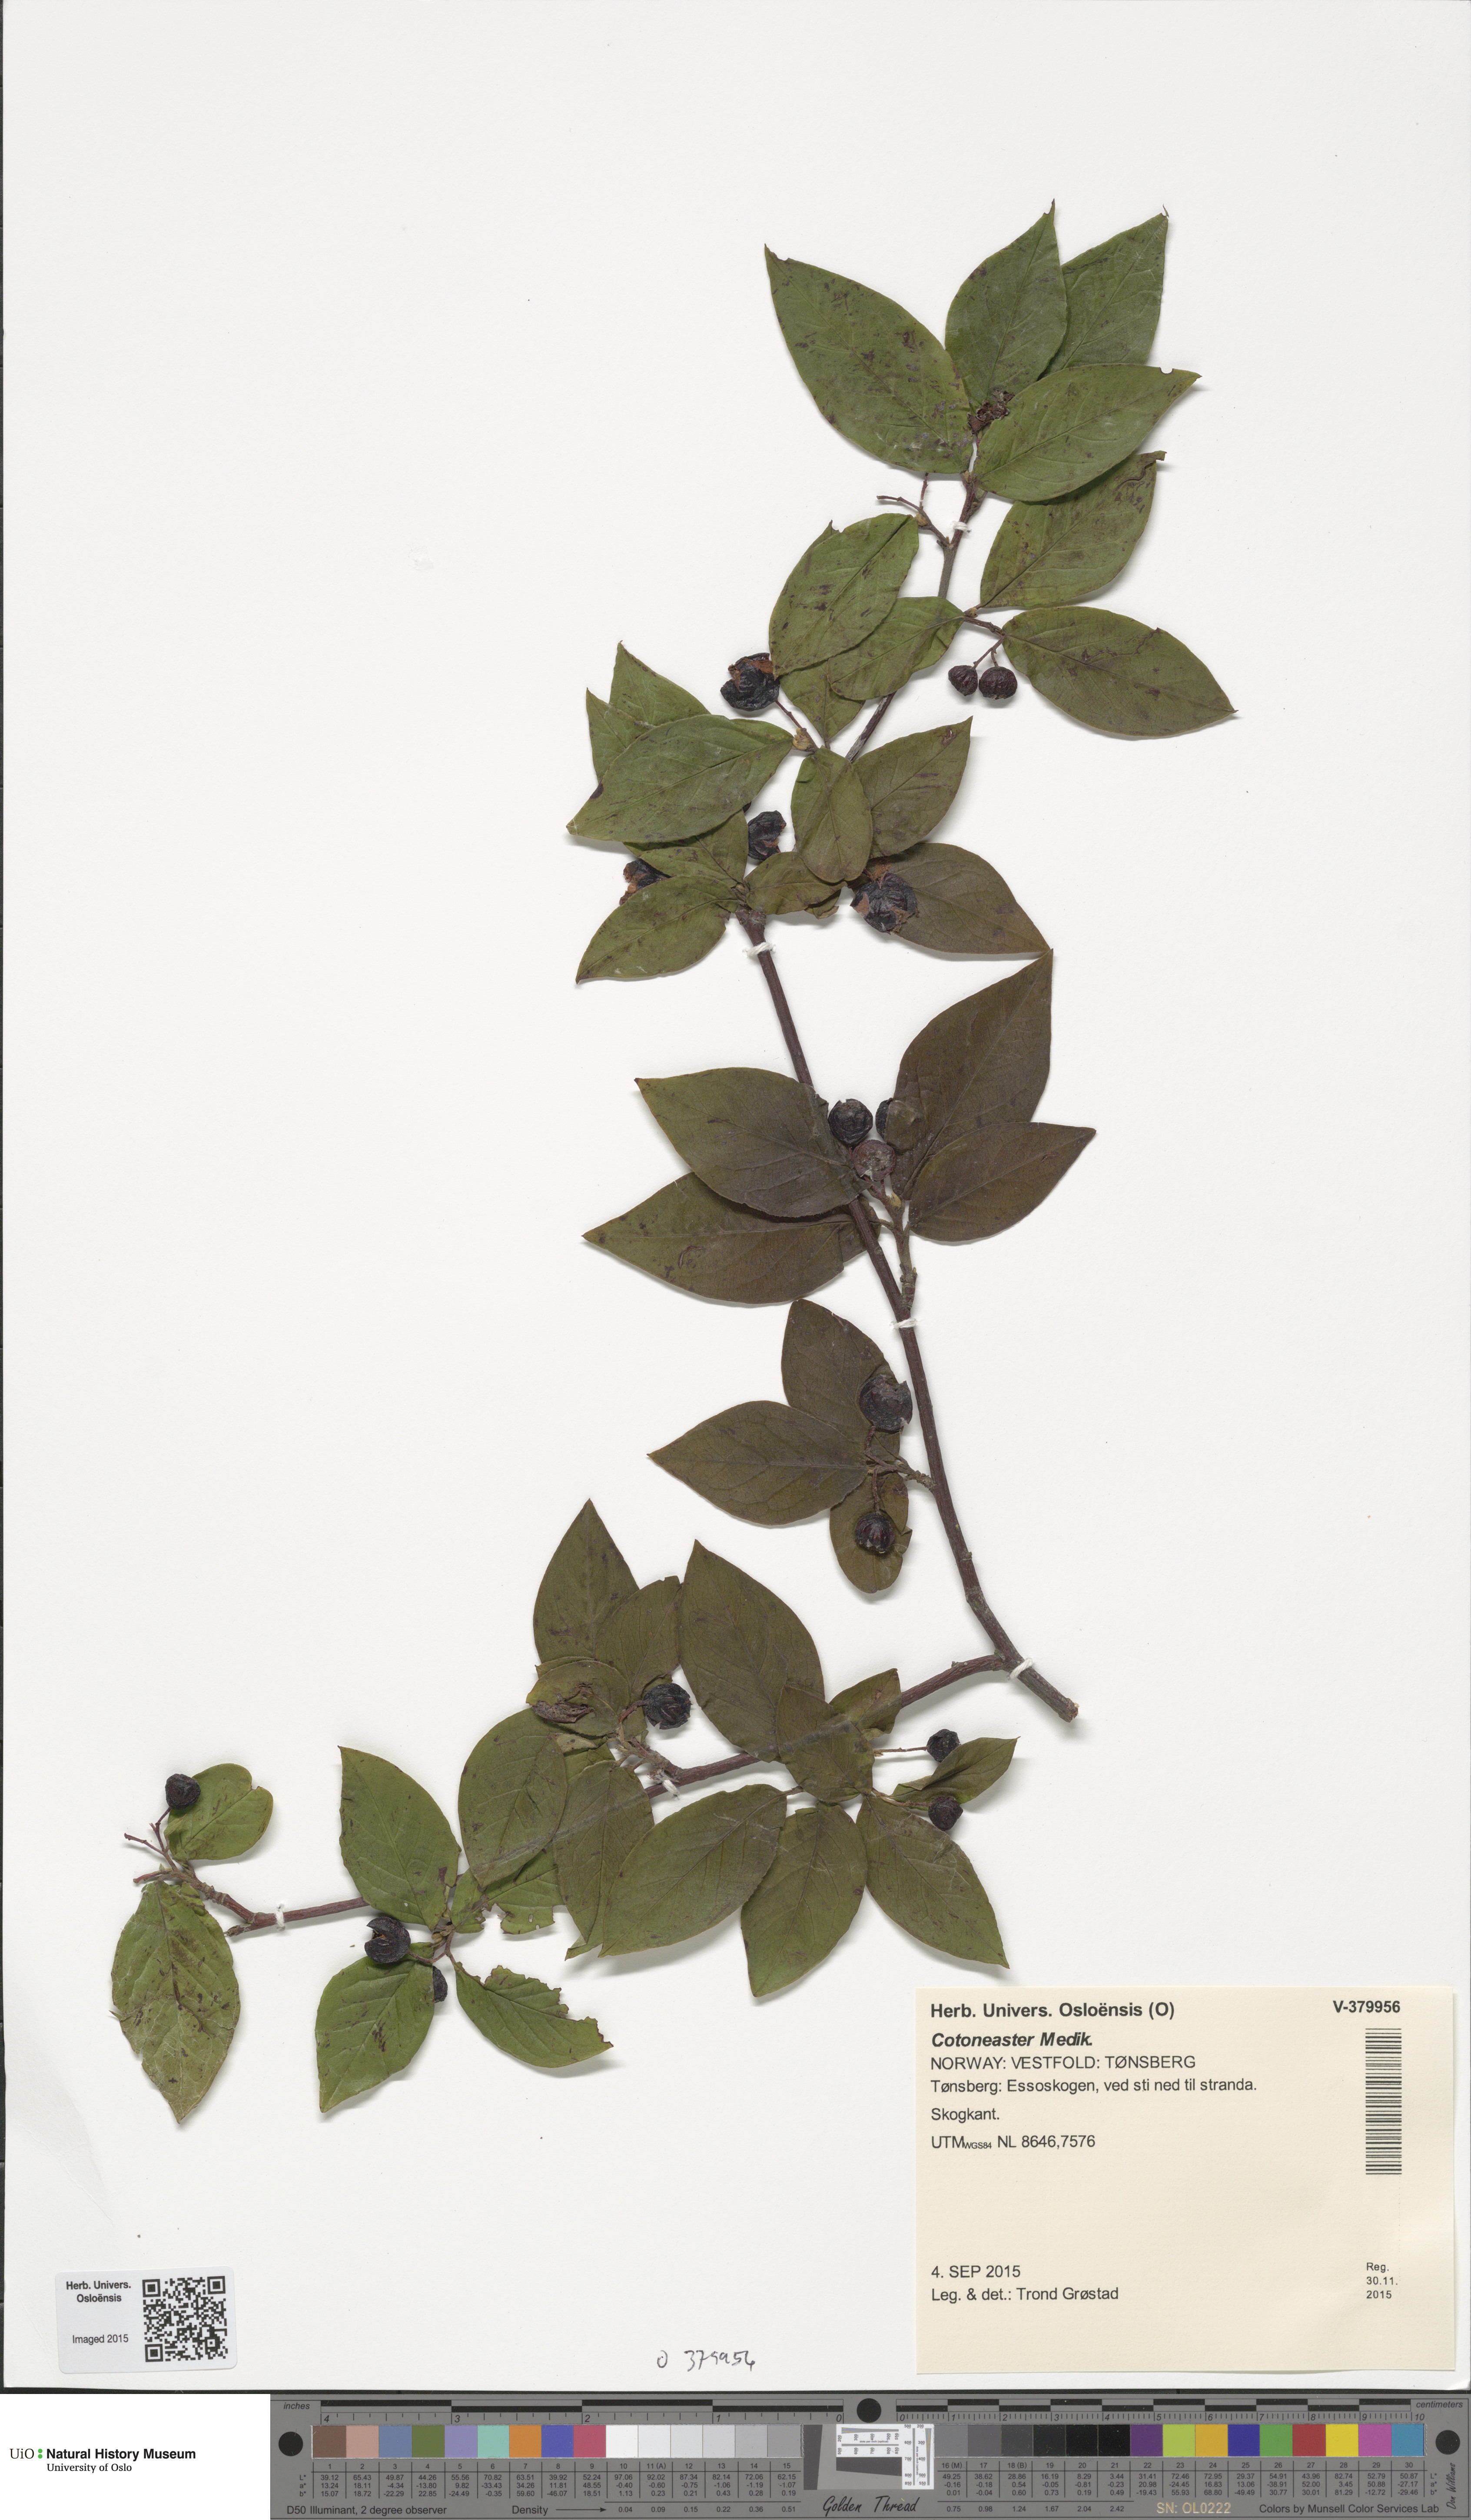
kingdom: Plantae
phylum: Tracheophyta
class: Magnoliopsida
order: Rosales
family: Rosaceae
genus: Cotoneaster
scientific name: Cotoneaster
